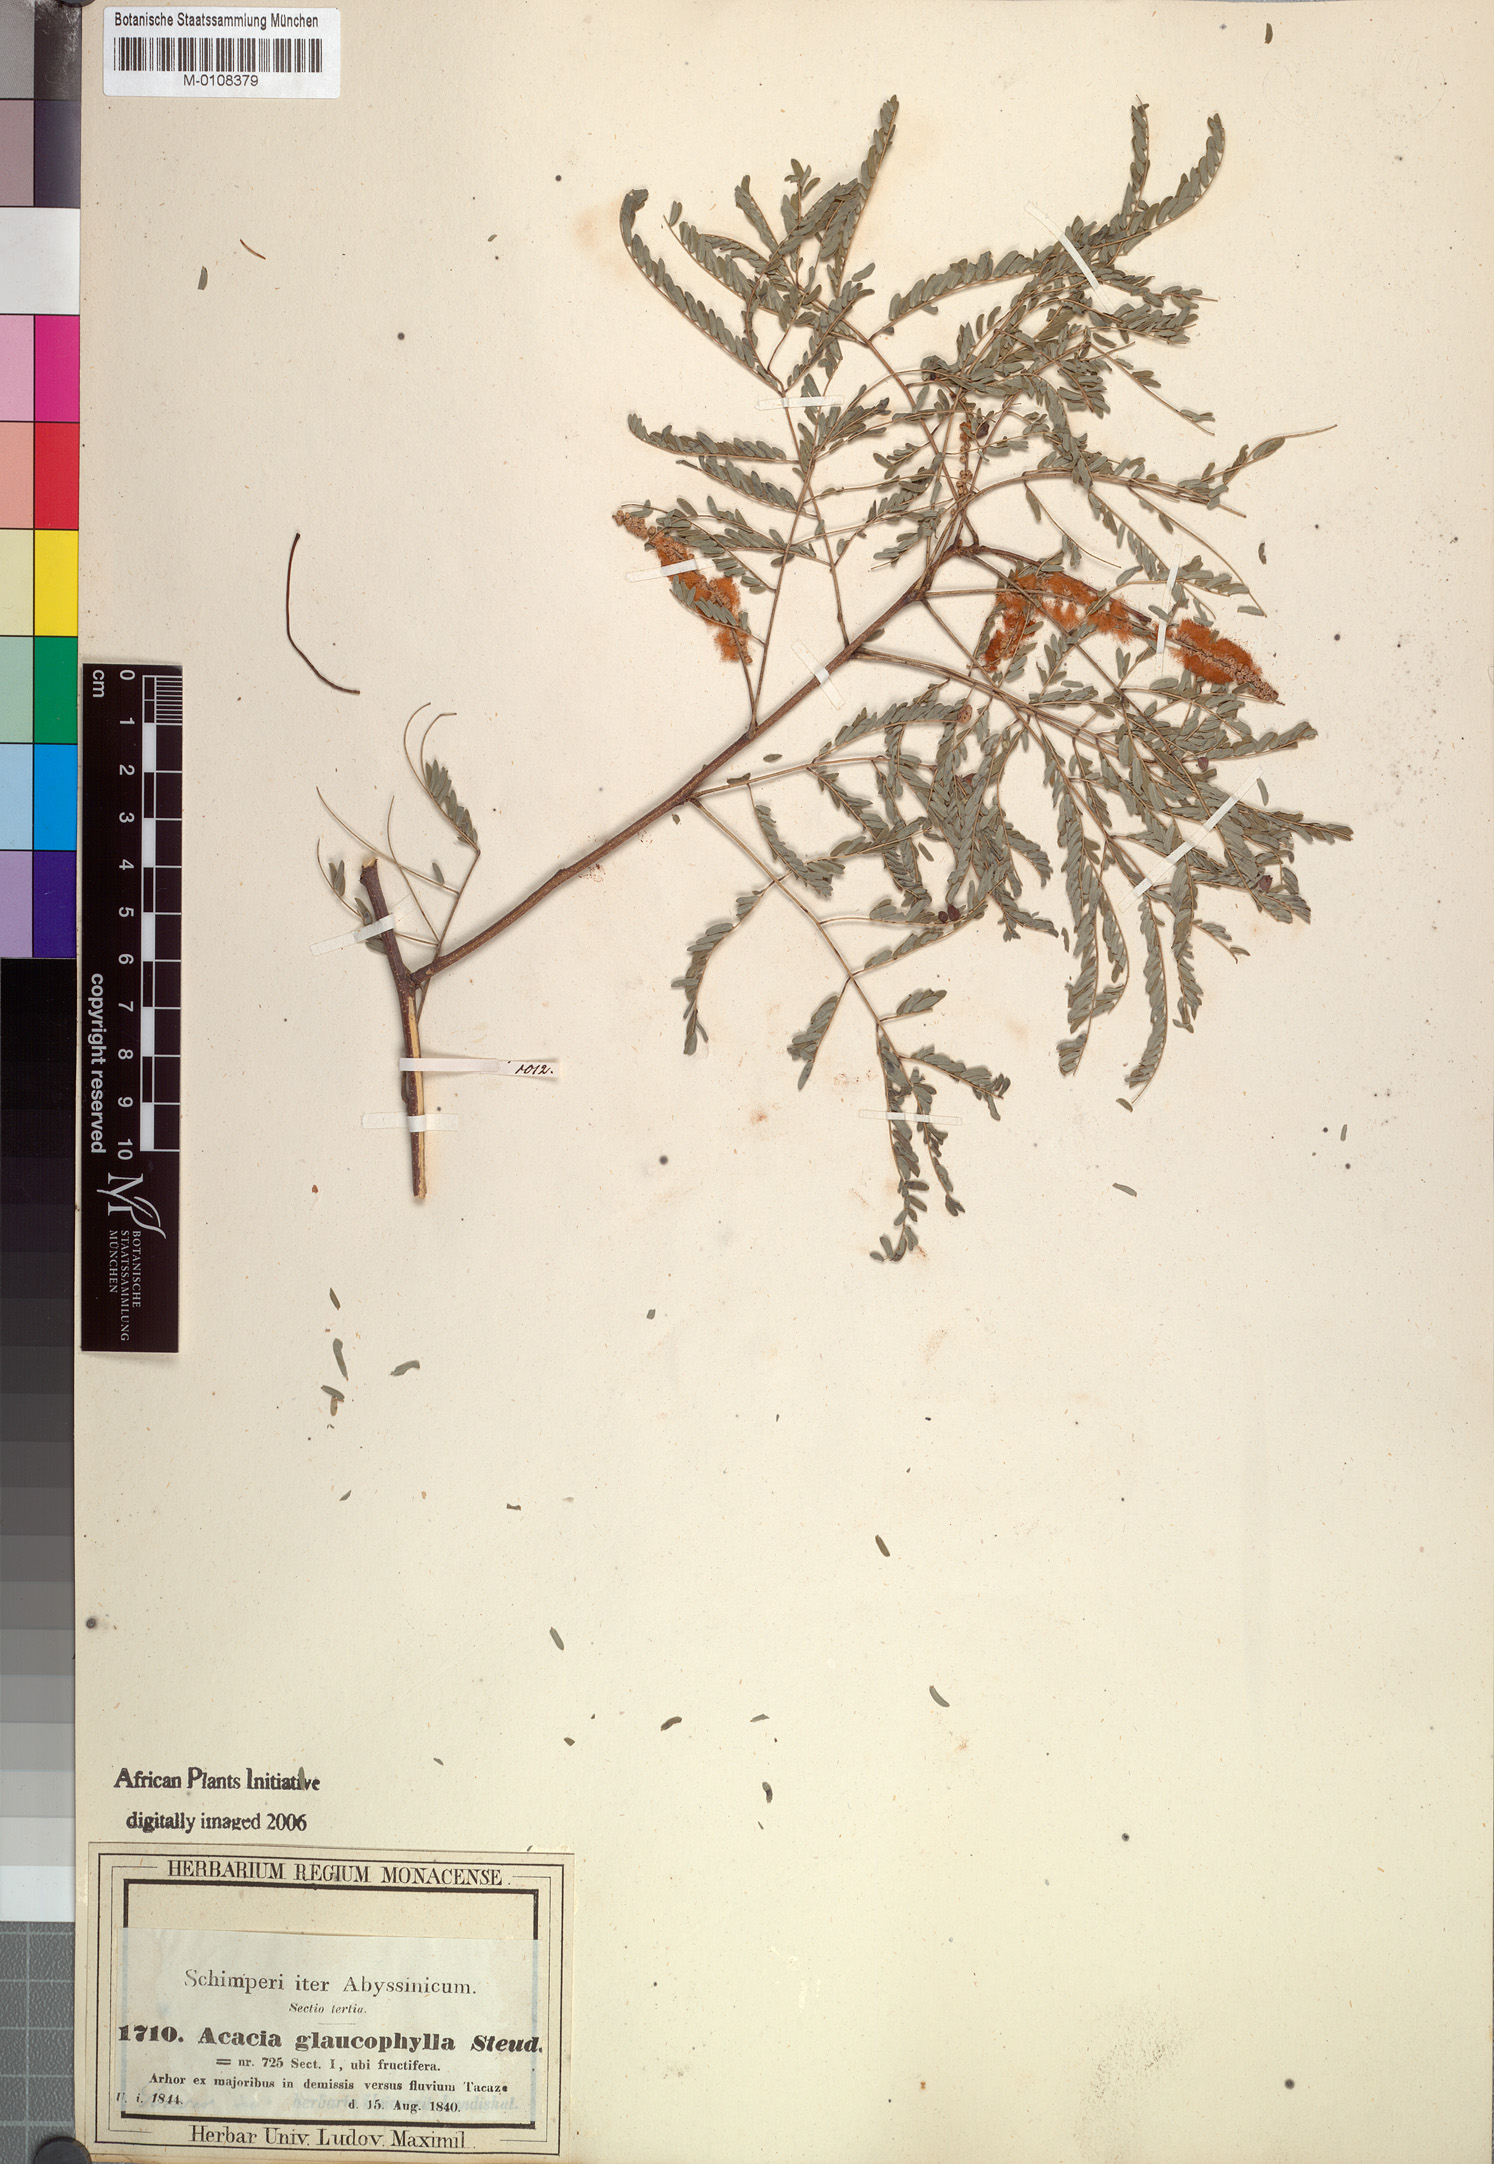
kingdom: Plantae
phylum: Tracheophyta
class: Magnoliopsida
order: Fabales
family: Fabaceae
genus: Senegalia
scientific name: Senegalia asak
